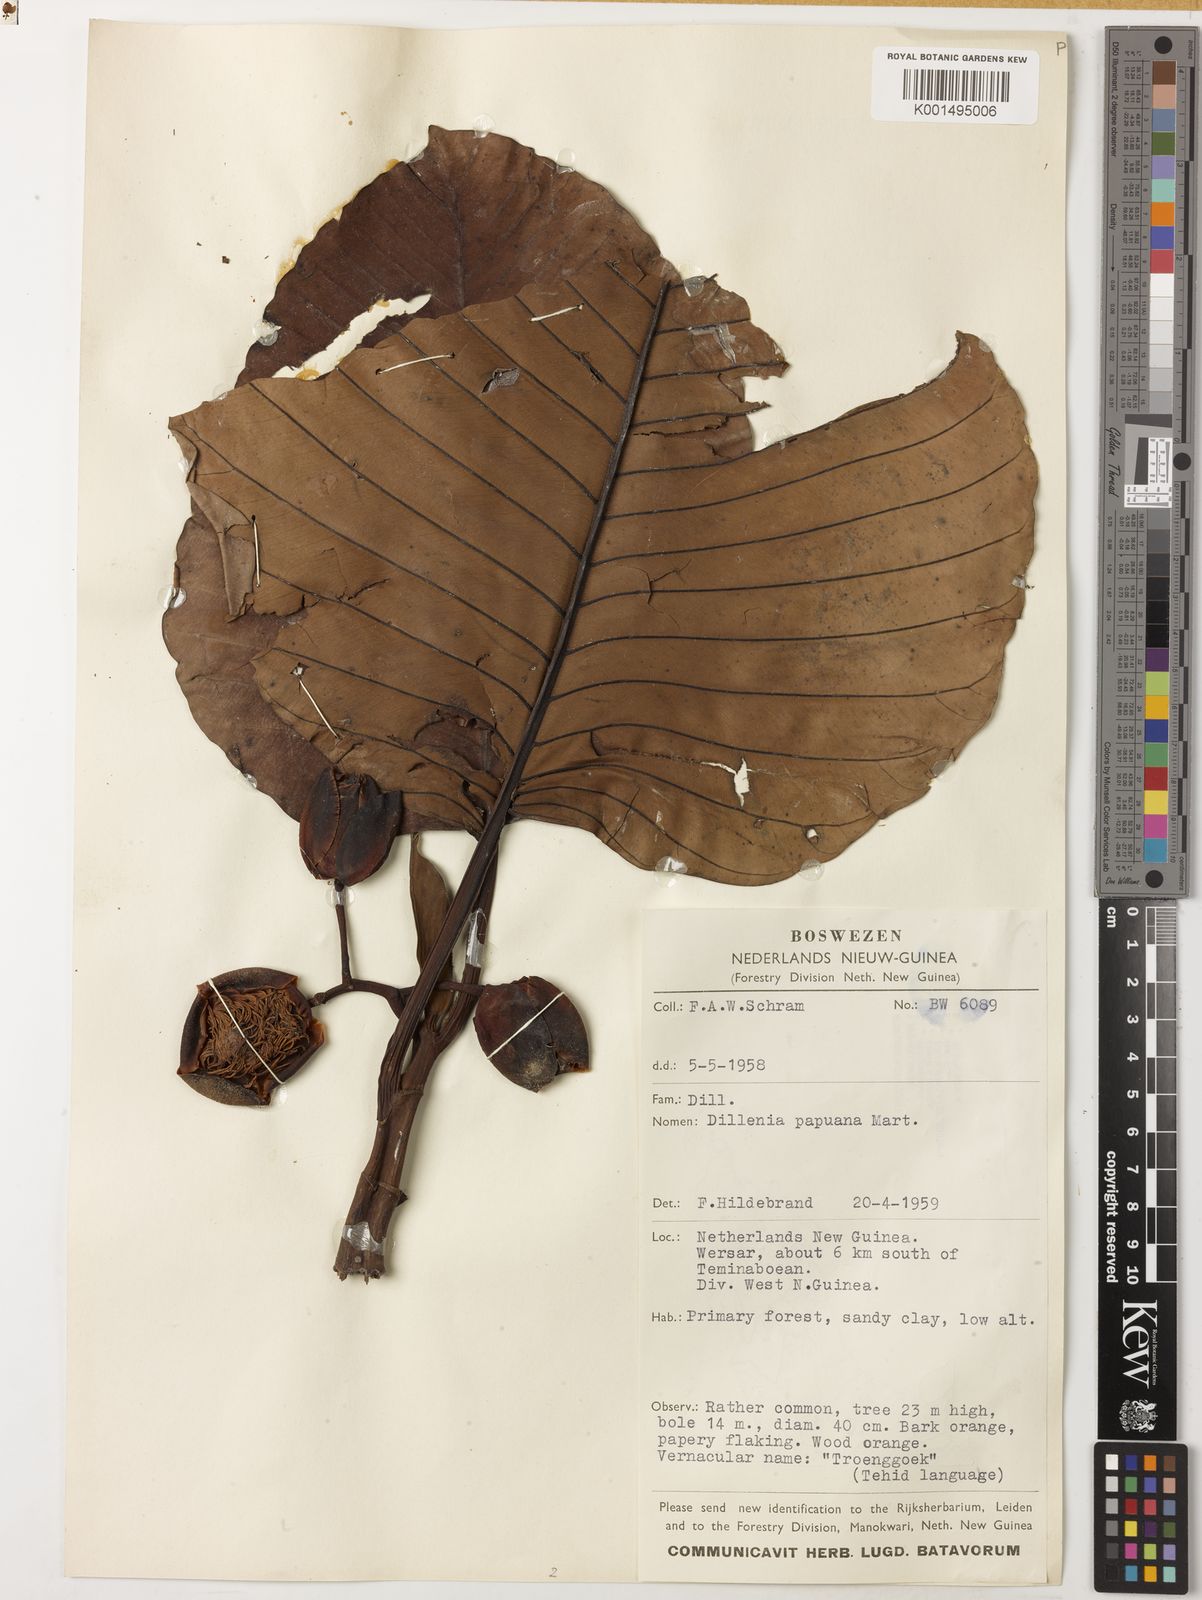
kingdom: Plantae
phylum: Tracheophyta
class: Magnoliopsida
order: Dilleniales
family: Dilleniaceae
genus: Dillenia
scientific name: Dillenia papuana
